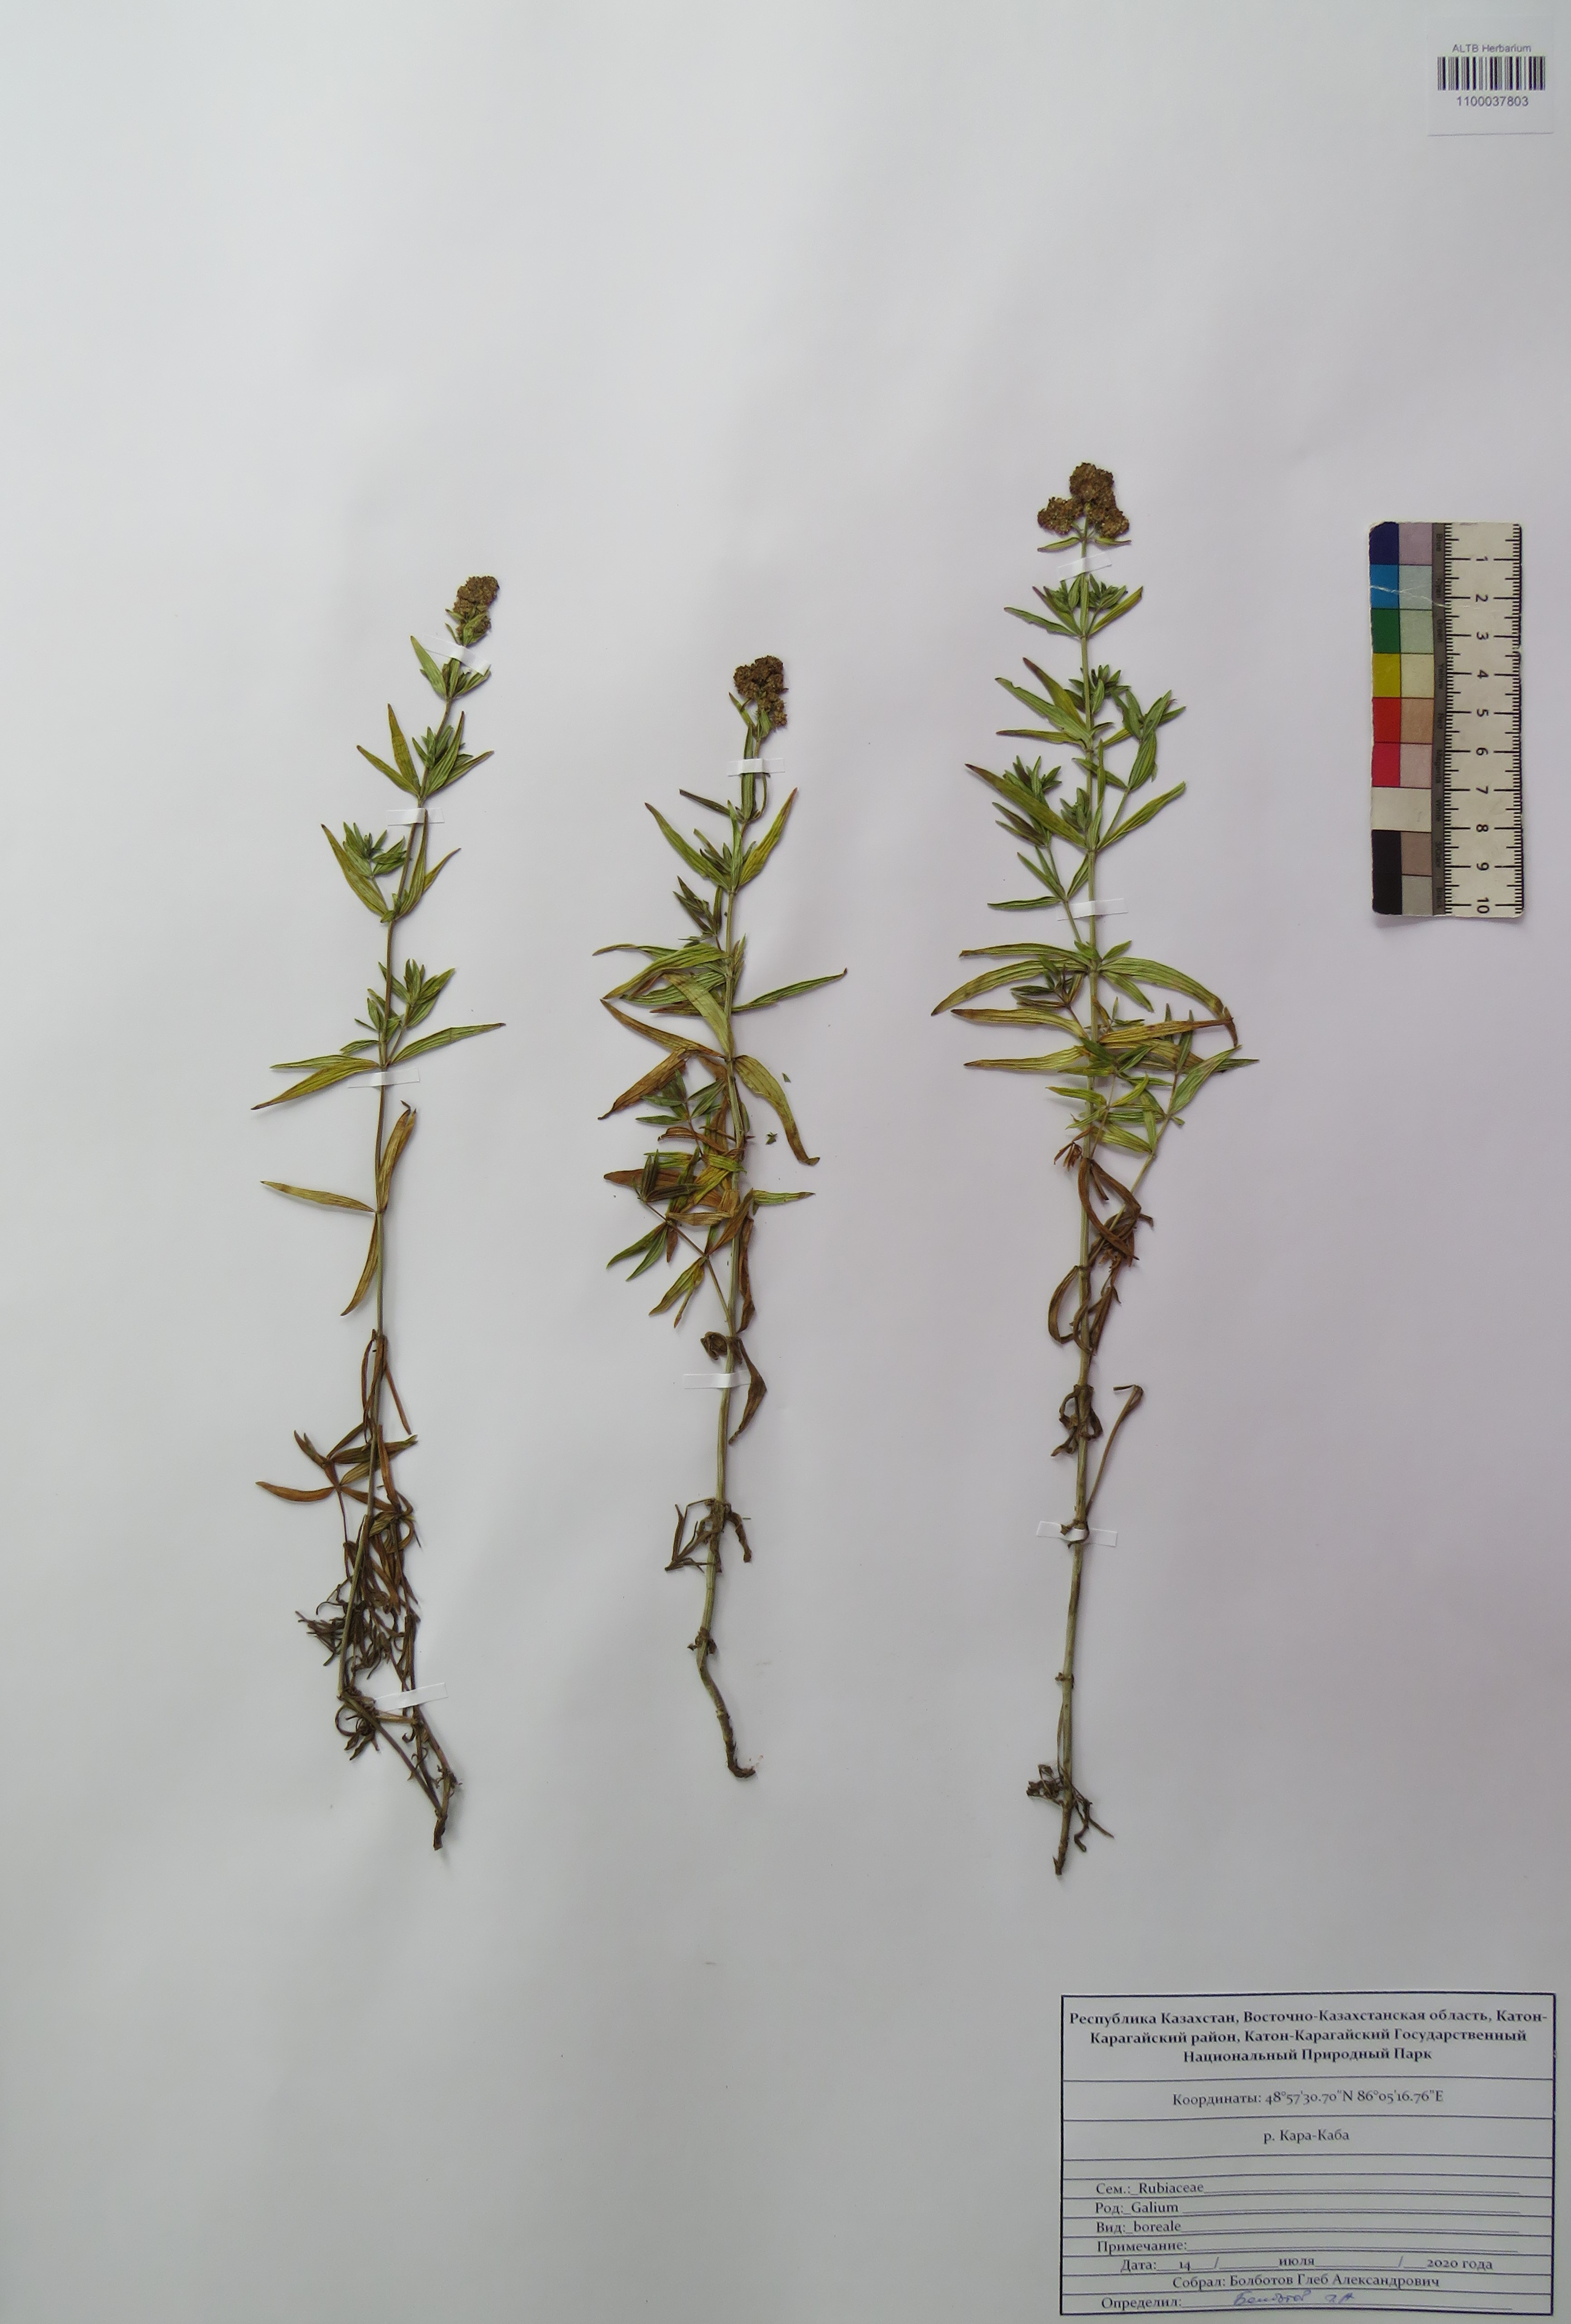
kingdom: Plantae
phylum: Tracheophyta
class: Magnoliopsida
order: Gentianales
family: Rubiaceae
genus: Galium
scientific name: Galium boreale
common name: Northern bedstraw
